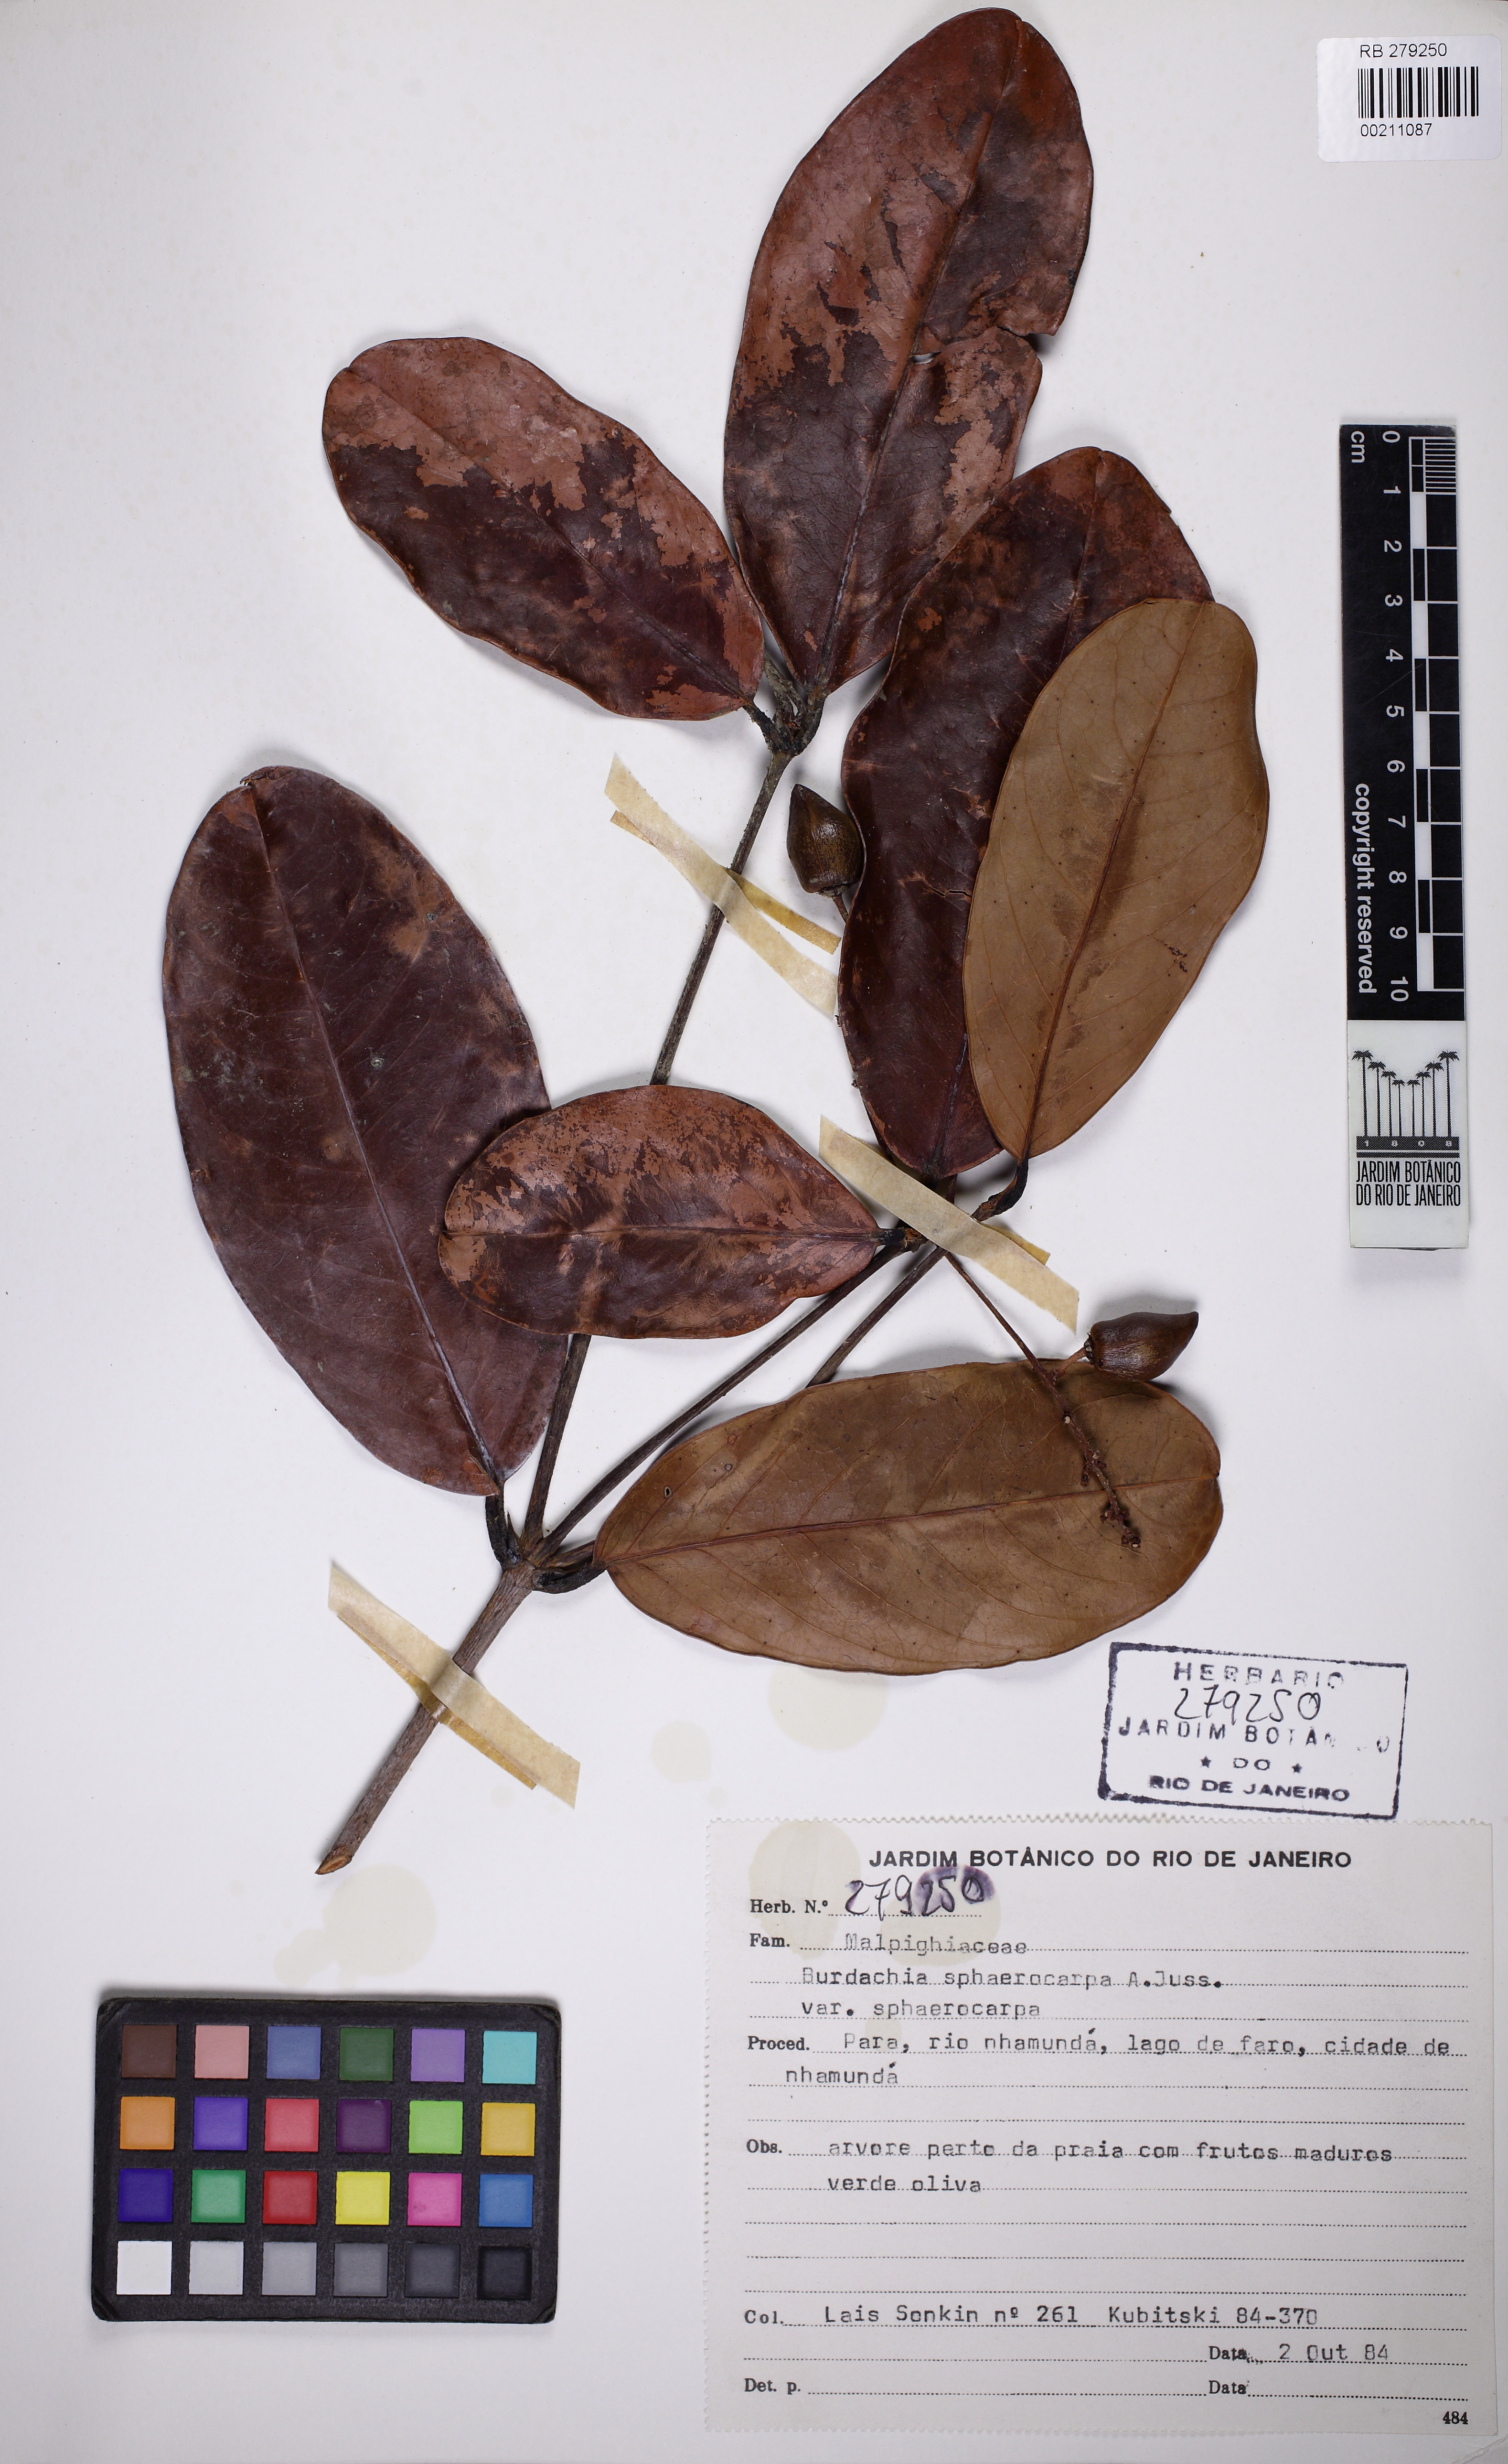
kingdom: Plantae
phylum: Tracheophyta
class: Magnoliopsida
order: Malpighiales
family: Malpighiaceae
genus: Burdachia
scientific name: Burdachia sphaerocarpa
